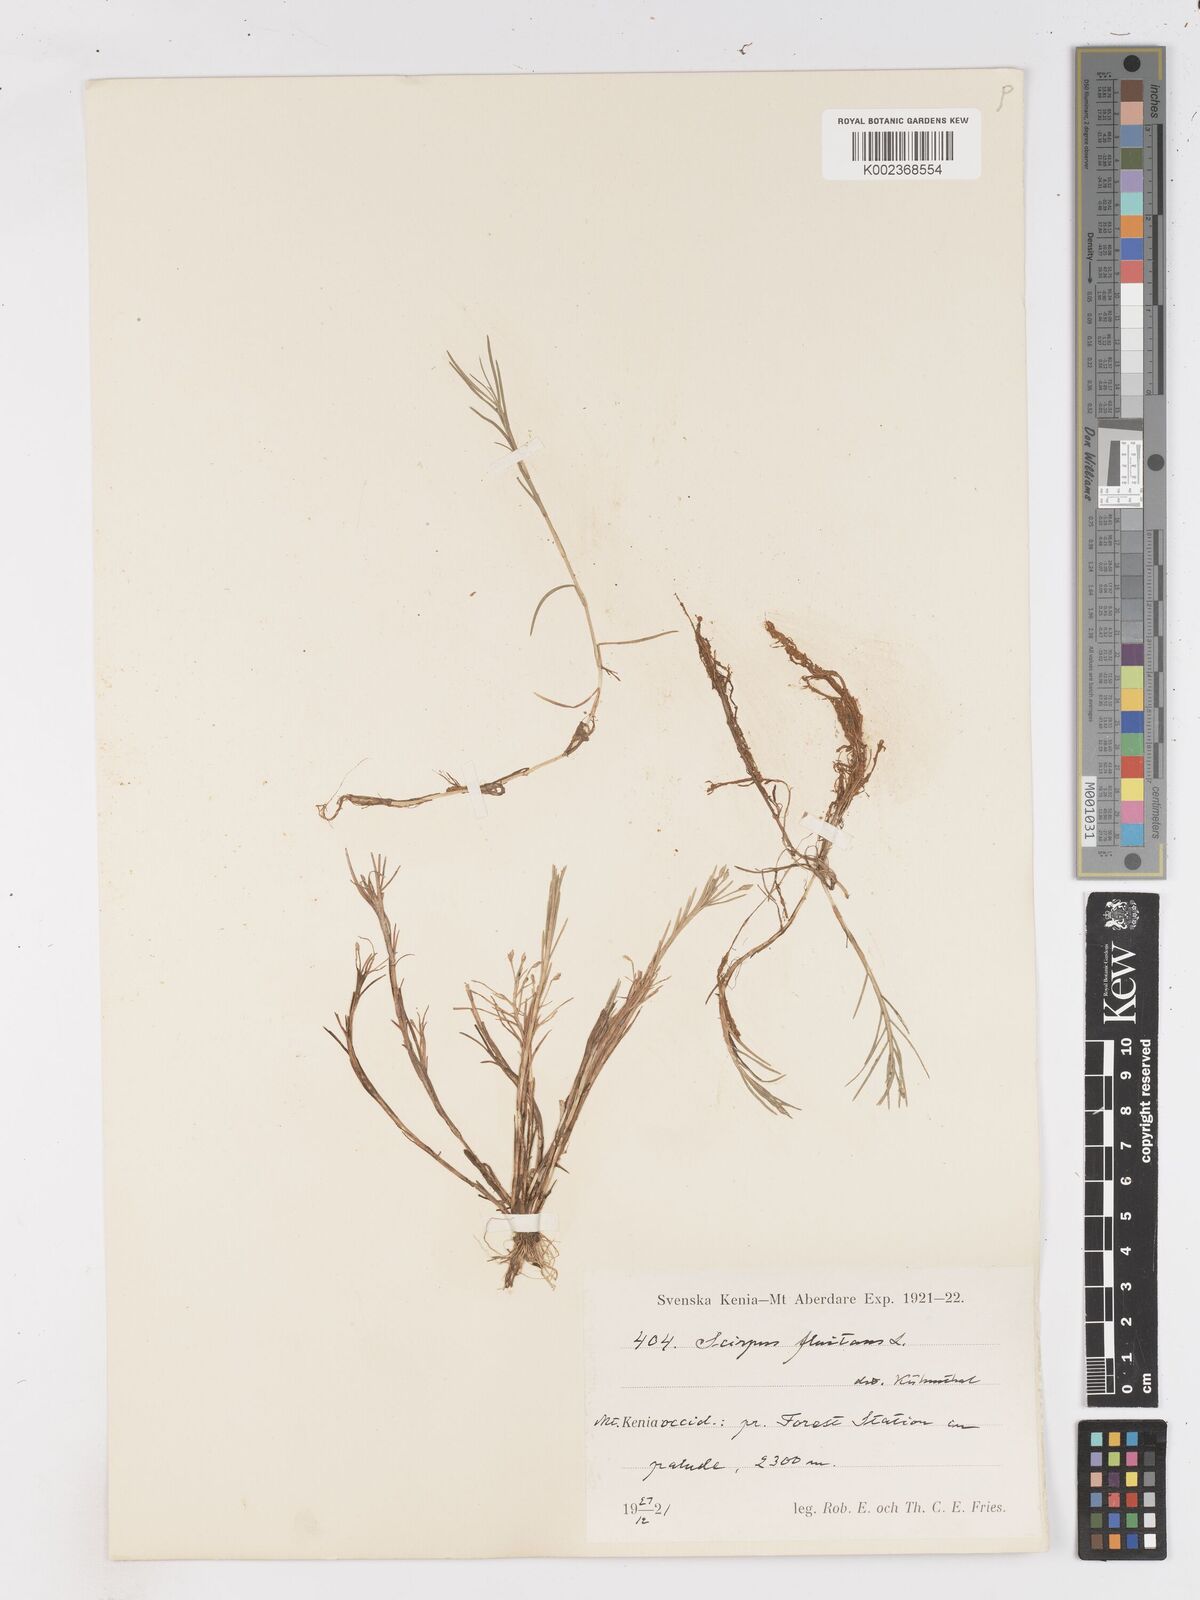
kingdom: Plantae
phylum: Tracheophyta
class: Liliopsida
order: Poales
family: Cyperaceae
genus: Isolepis
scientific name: Isolepis fluitans
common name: Floating club-rush
